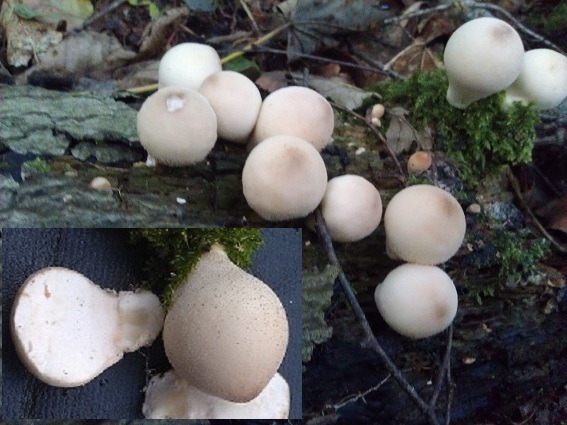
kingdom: Fungi
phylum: Basidiomycota
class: Agaricomycetes
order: Agaricales
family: Lycoperdaceae
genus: Apioperdon
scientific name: Apioperdon pyriforme
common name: pære-støvbold
